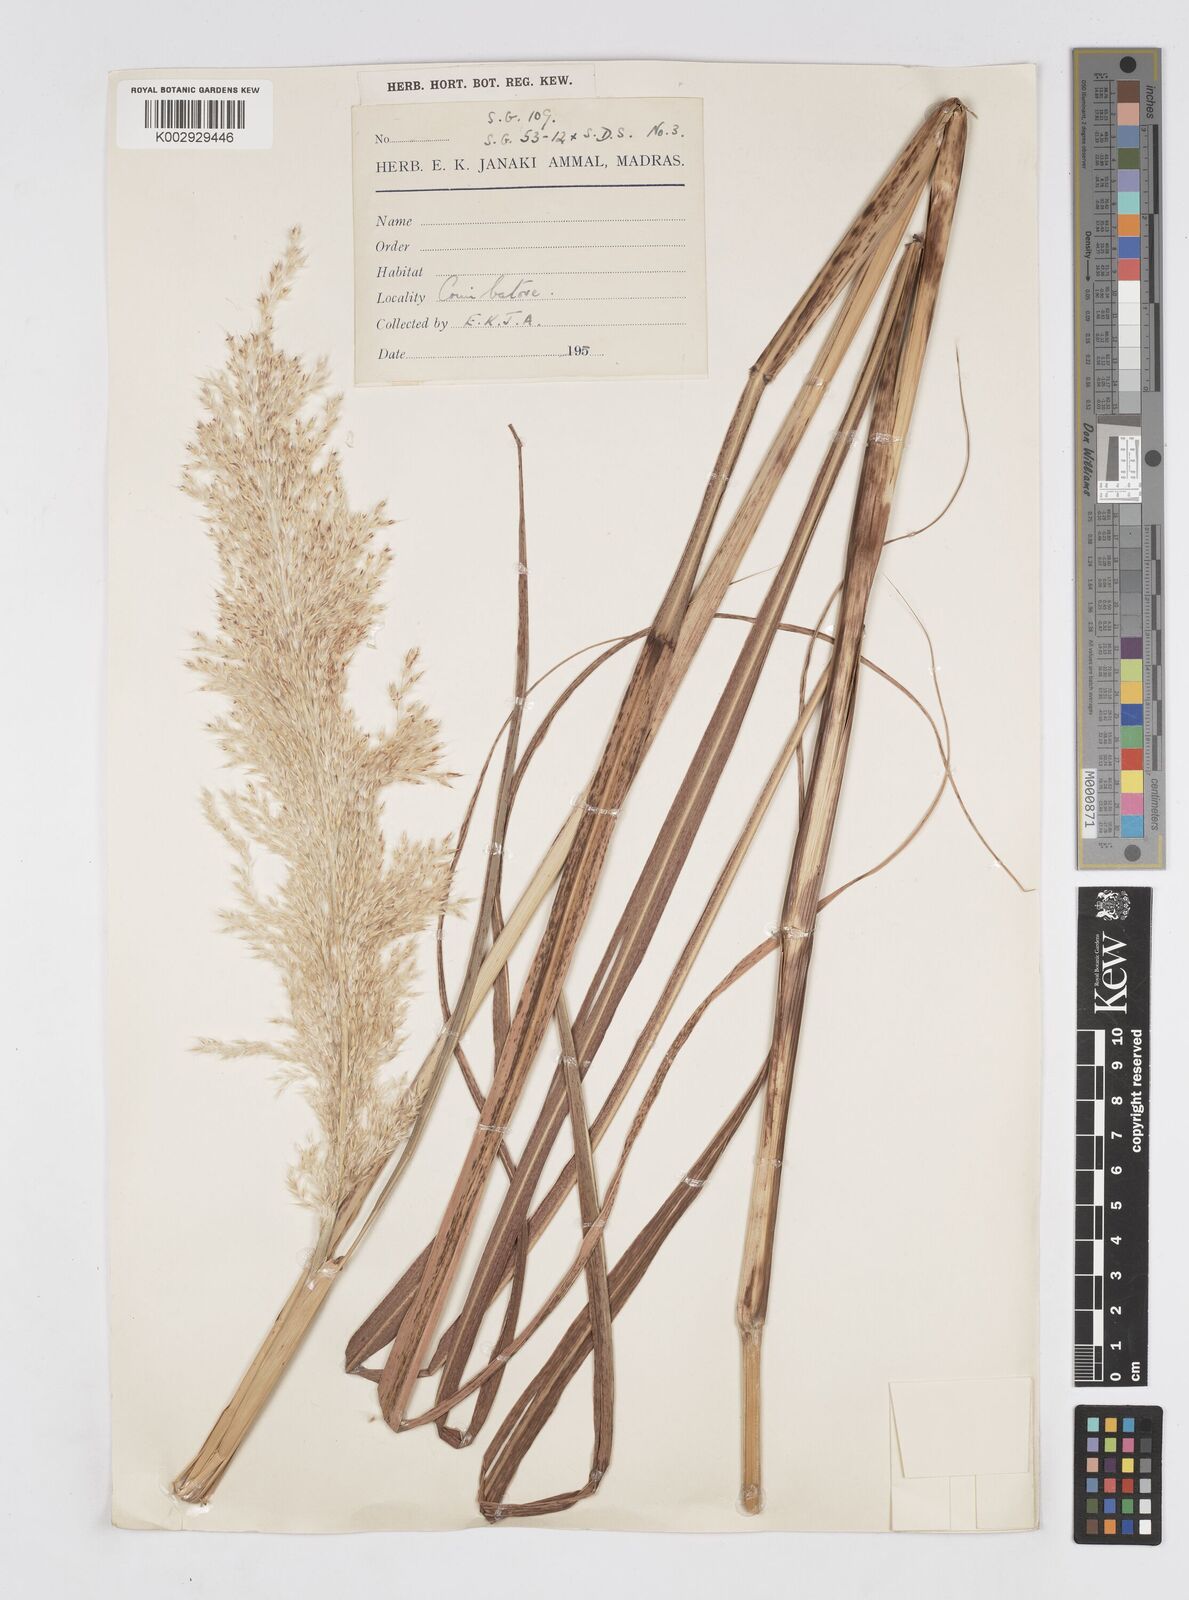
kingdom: Plantae
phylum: Tracheophyta
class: Liliopsida
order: Poales
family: Poaceae
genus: Saccharum
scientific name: Saccharum
